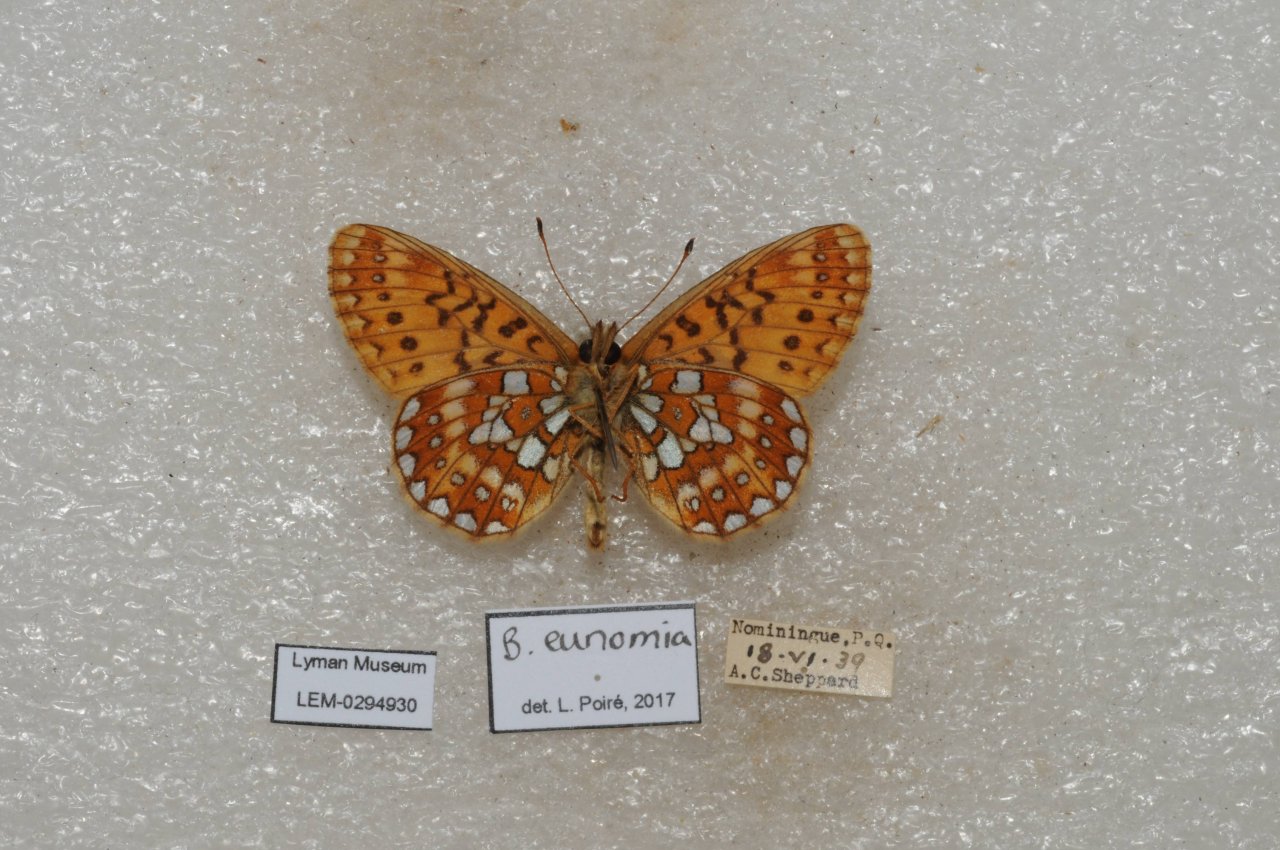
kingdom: Animalia
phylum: Arthropoda
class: Insecta
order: Lepidoptera
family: Nymphalidae
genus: Boloria
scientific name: Boloria eunomia
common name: Bog Fritillary
